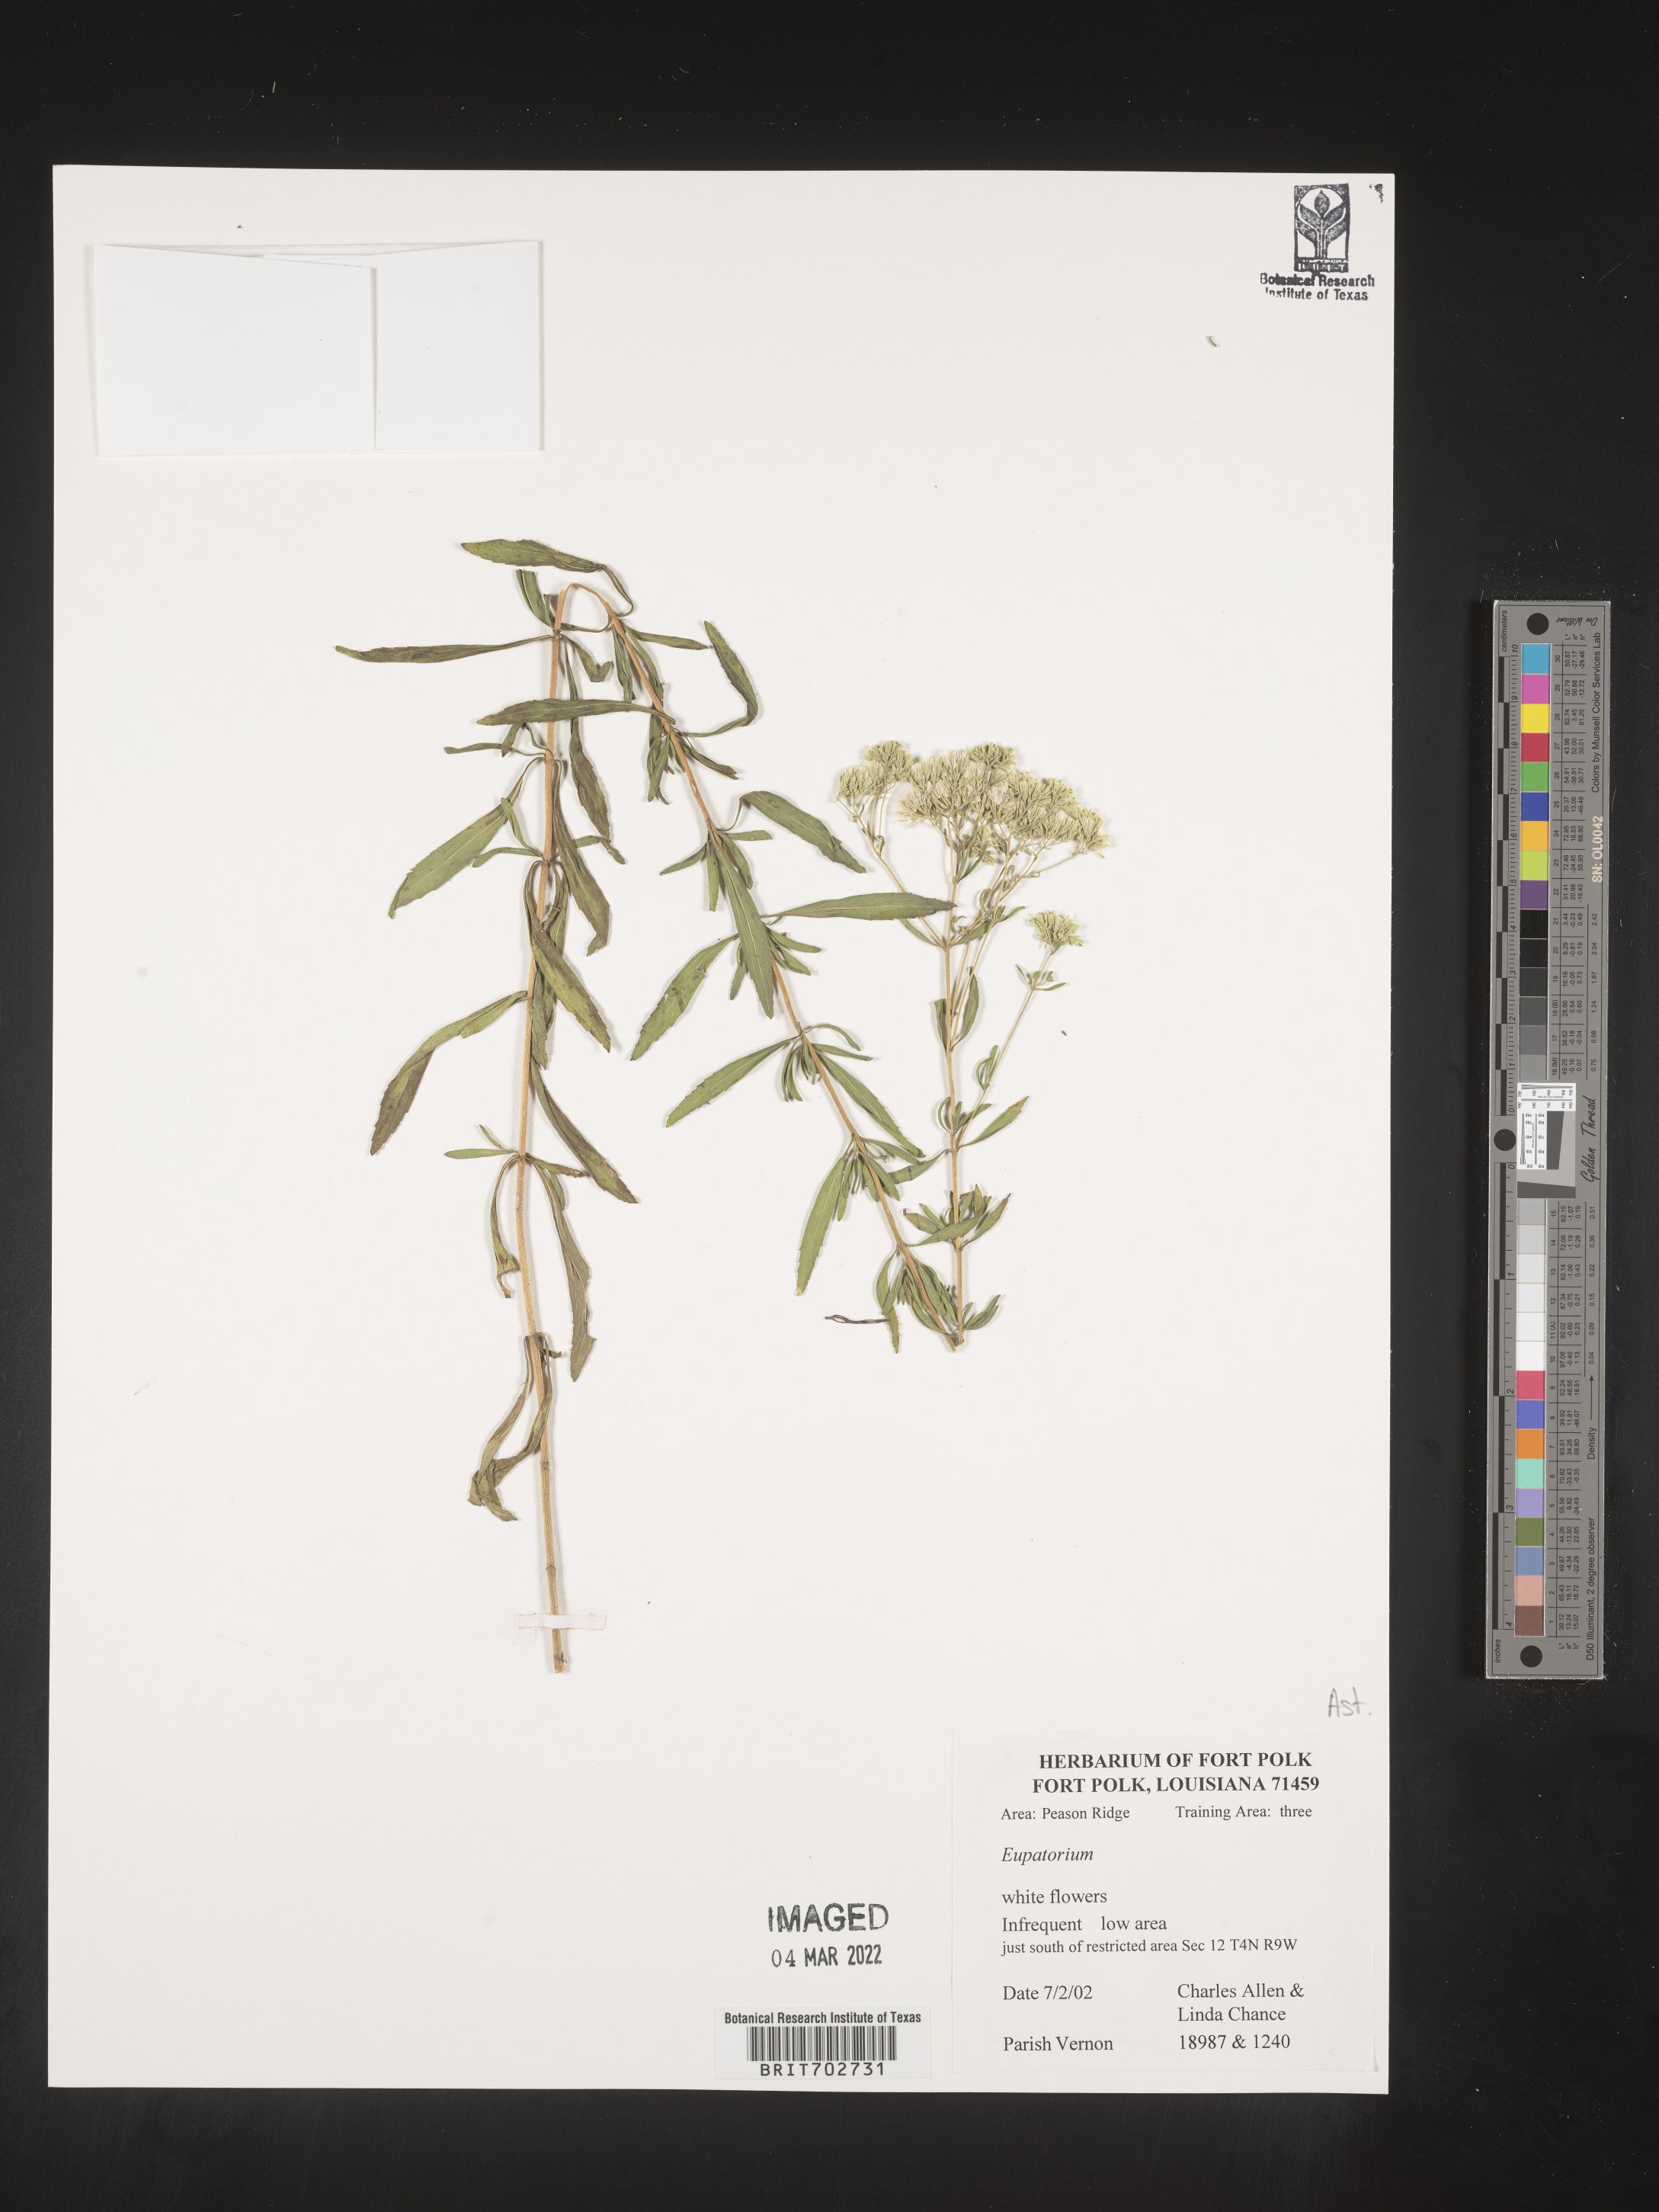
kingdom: Plantae
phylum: Tracheophyta
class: Magnoliopsida
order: Asterales
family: Asteraceae
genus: Eupatorium
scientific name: Eupatorium
